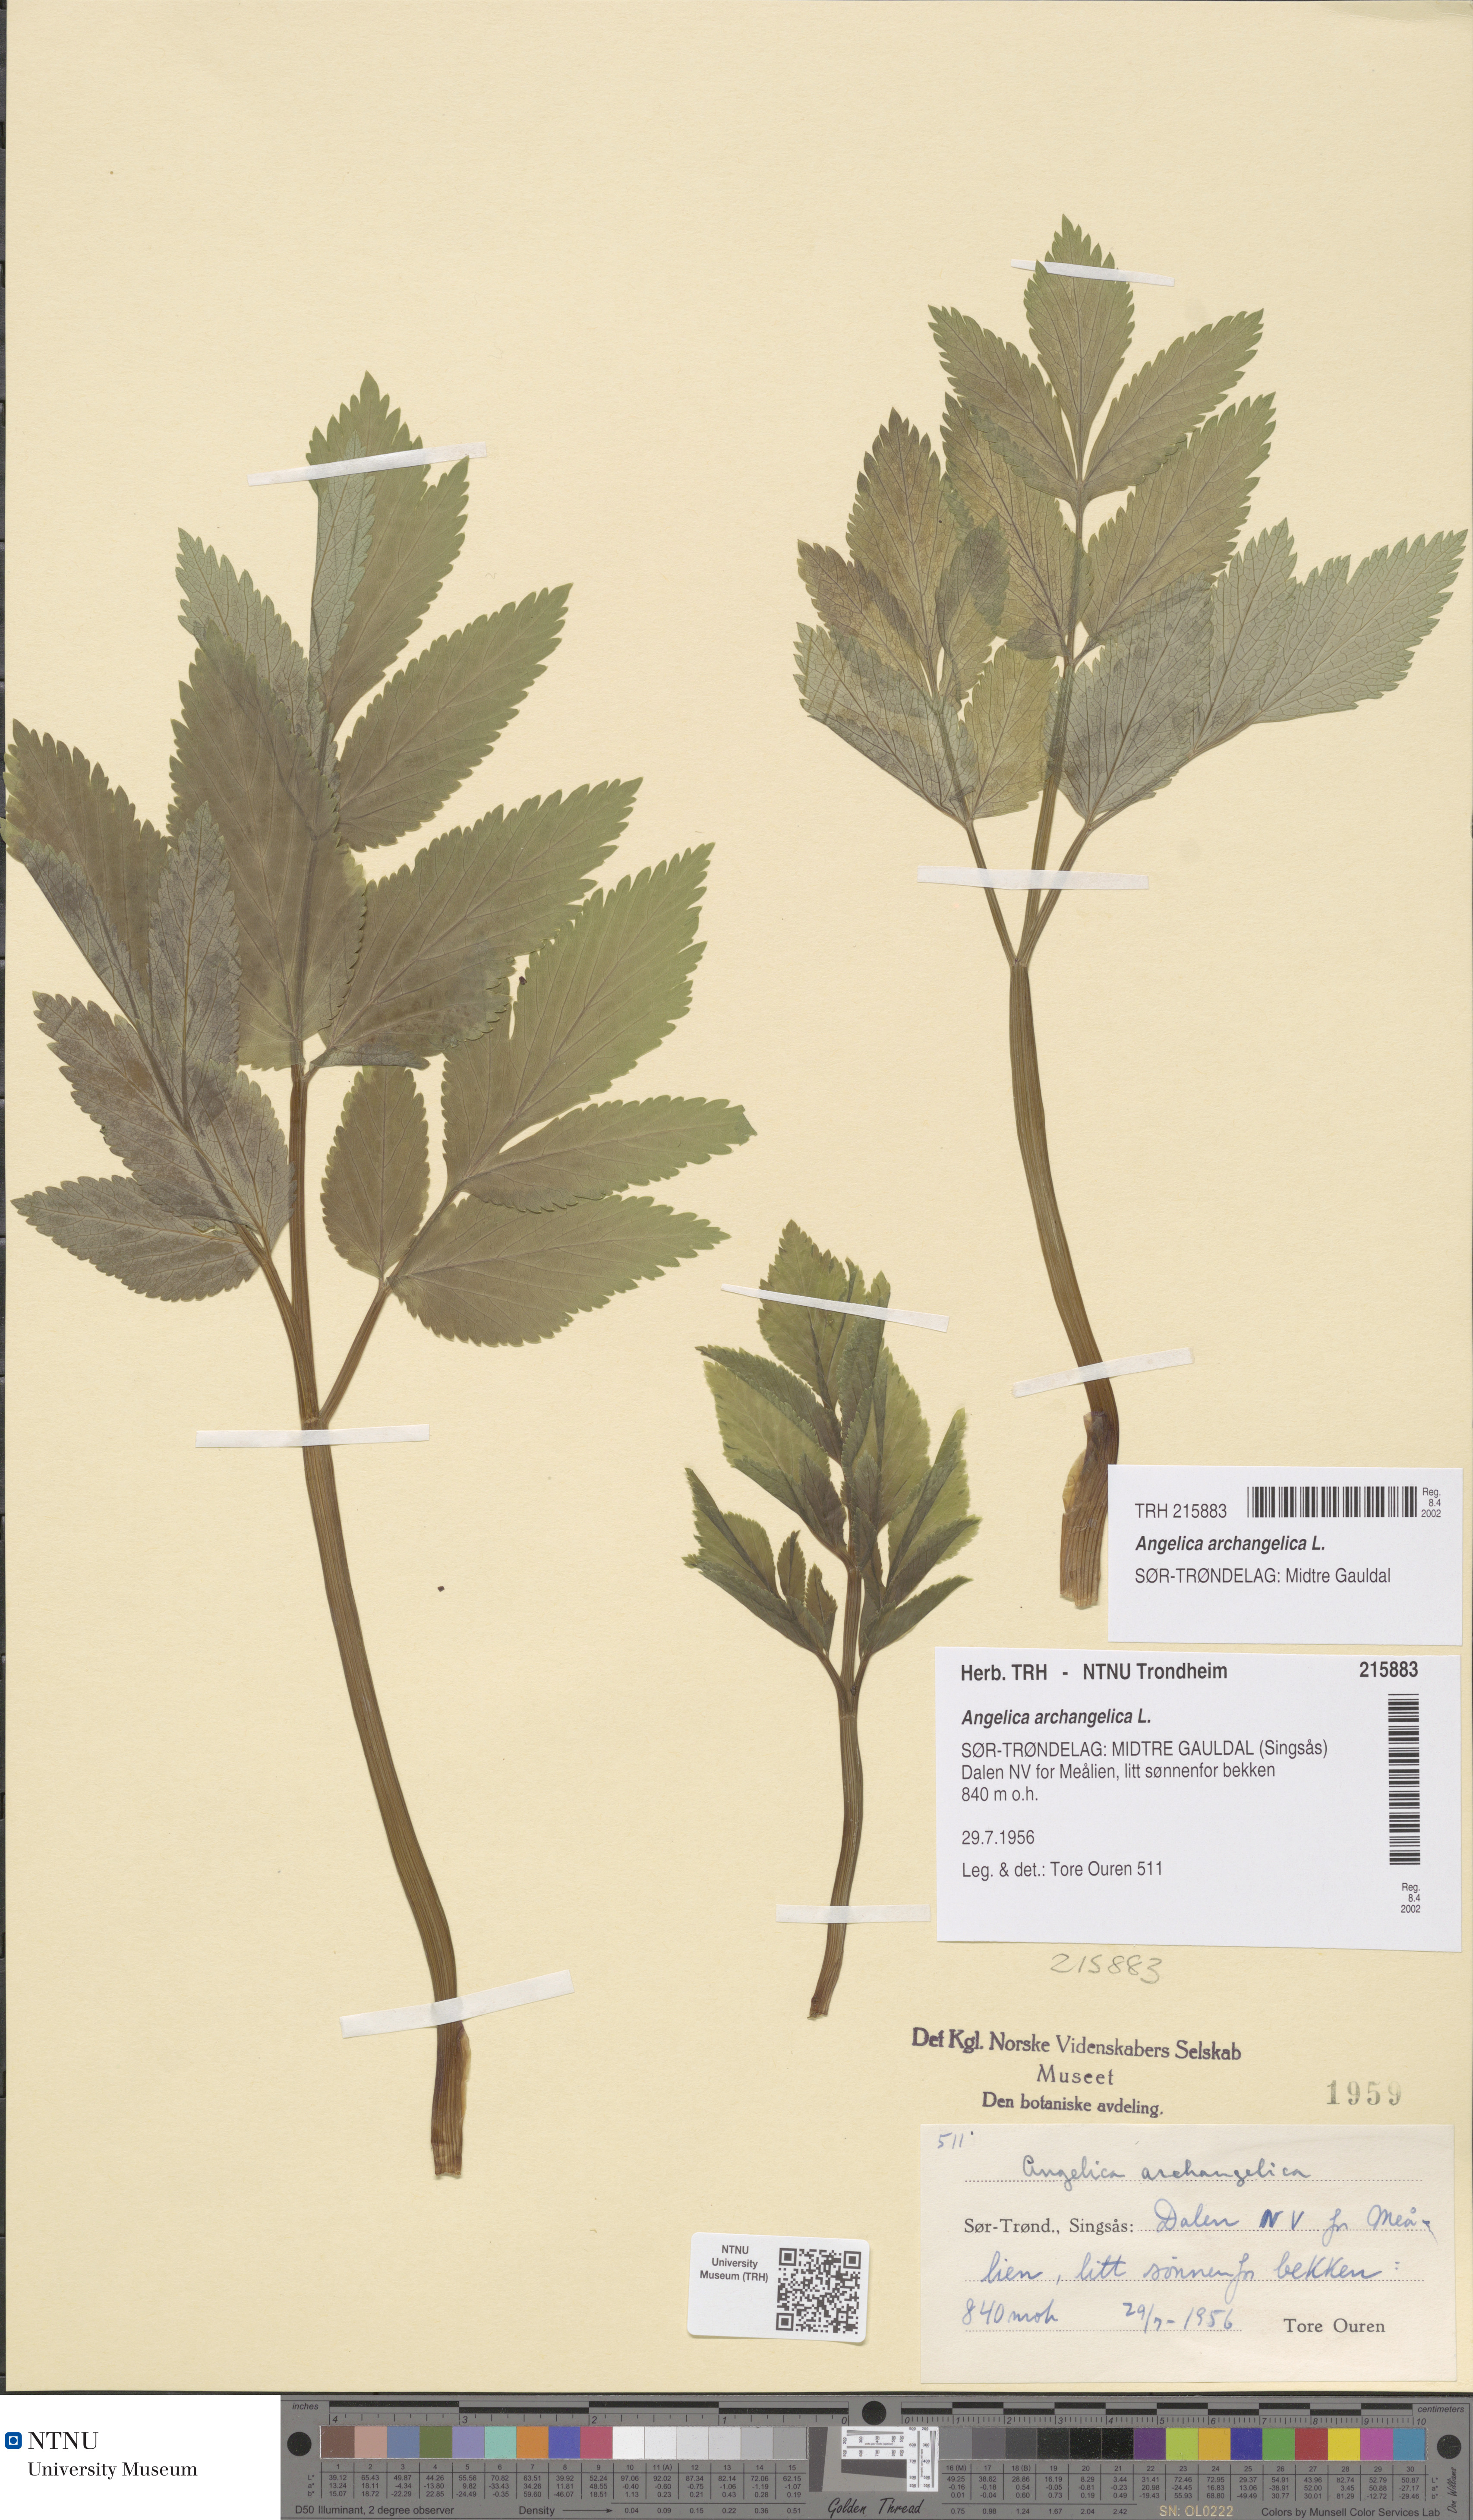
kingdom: Plantae
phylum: Tracheophyta
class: Magnoliopsida
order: Apiales
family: Apiaceae
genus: Angelica
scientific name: Angelica archangelica
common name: Garden angelica
